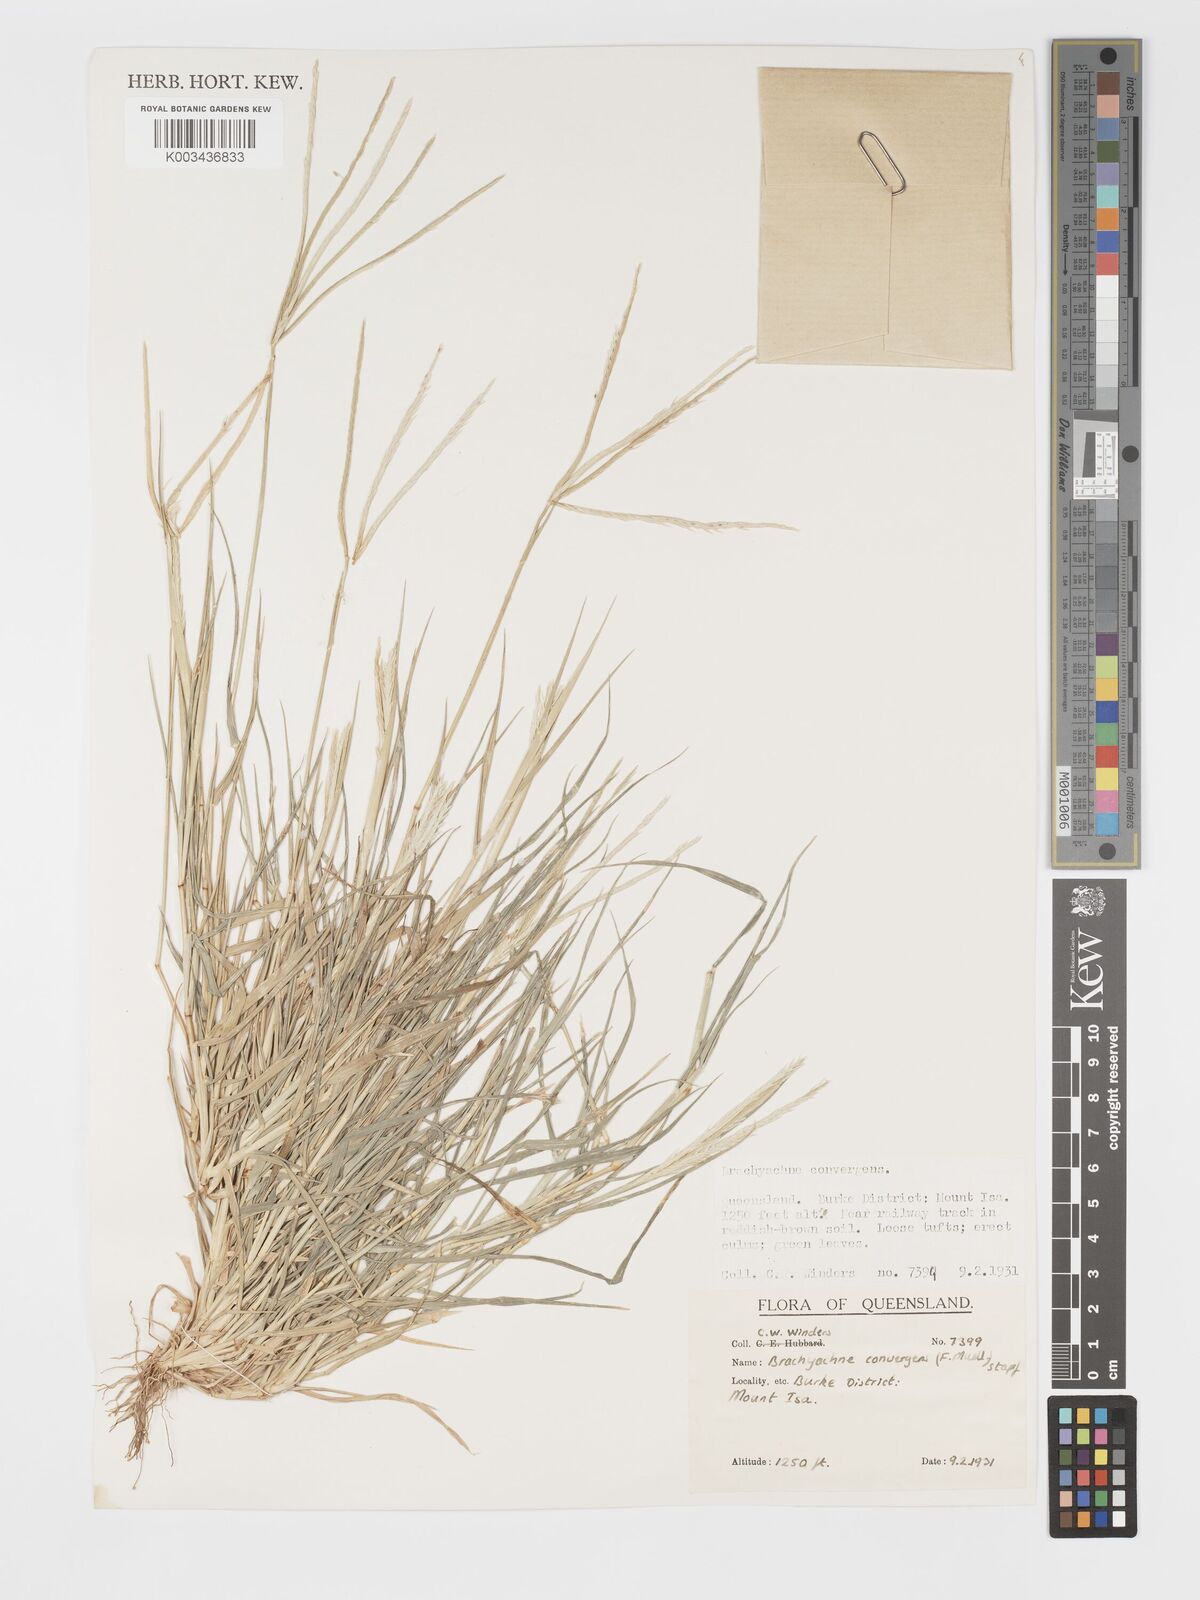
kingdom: Plantae
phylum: Tracheophyta
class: Liliopsida
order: Poales
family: Poaceae
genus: Cynodon
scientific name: Cynodon convergens
